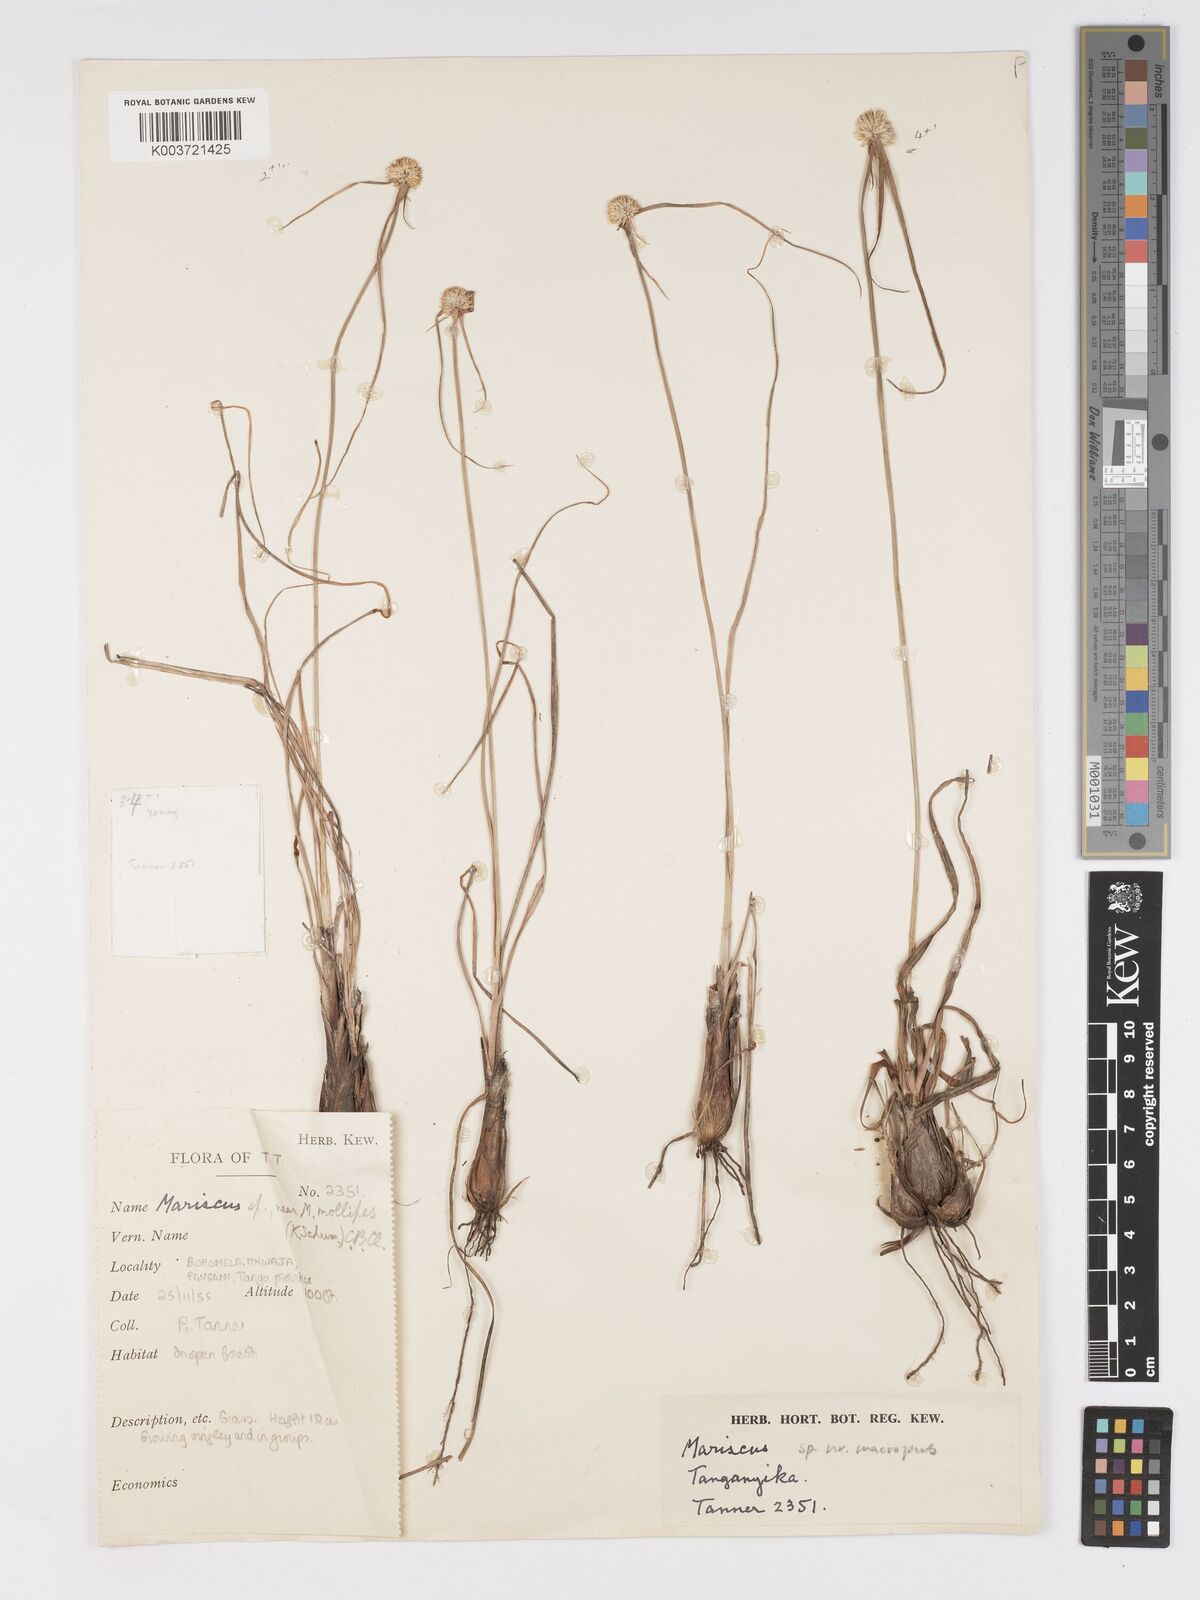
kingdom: Plantae
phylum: Tracheophyta
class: Liliopsida
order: Poales
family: Cyperaceae
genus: Cyperus
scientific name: Cyperus mollipes
